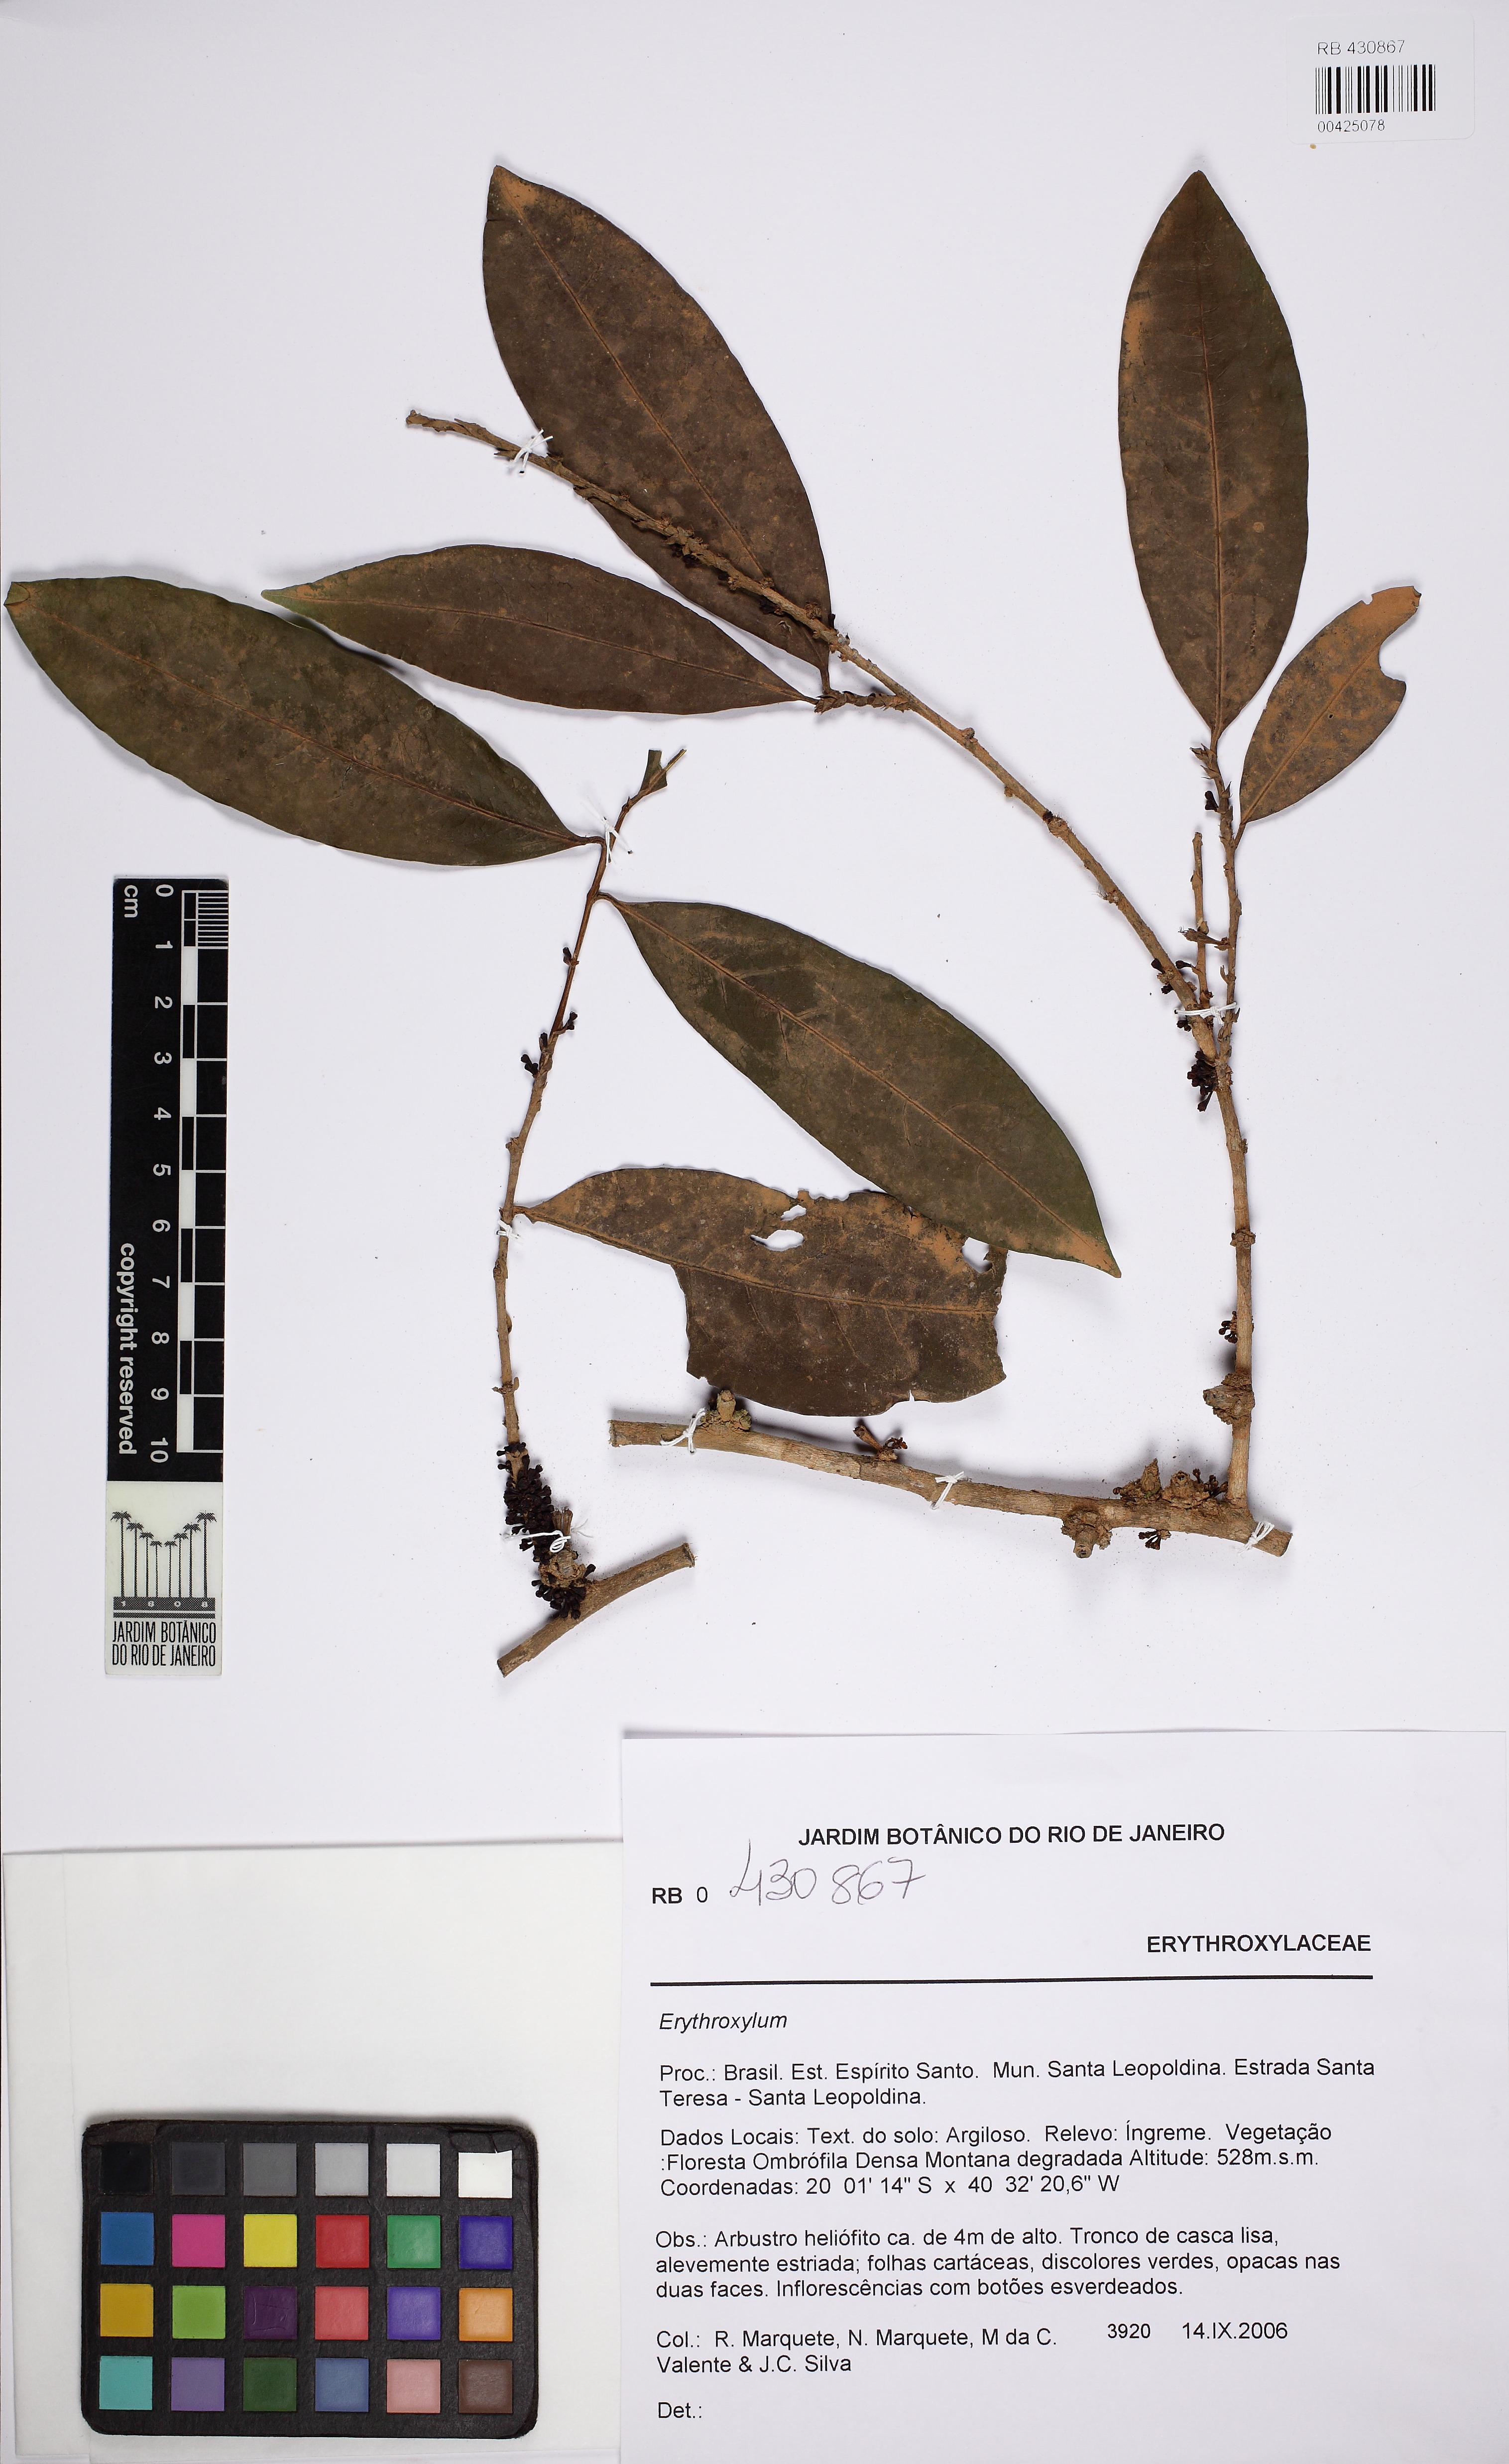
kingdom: Plantae
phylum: Tracheophyta
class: Magnoliopsida
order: Malpighiales
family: Erythroxylaceae
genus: Erythroxylum
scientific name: Erythroxylum citrifolium
